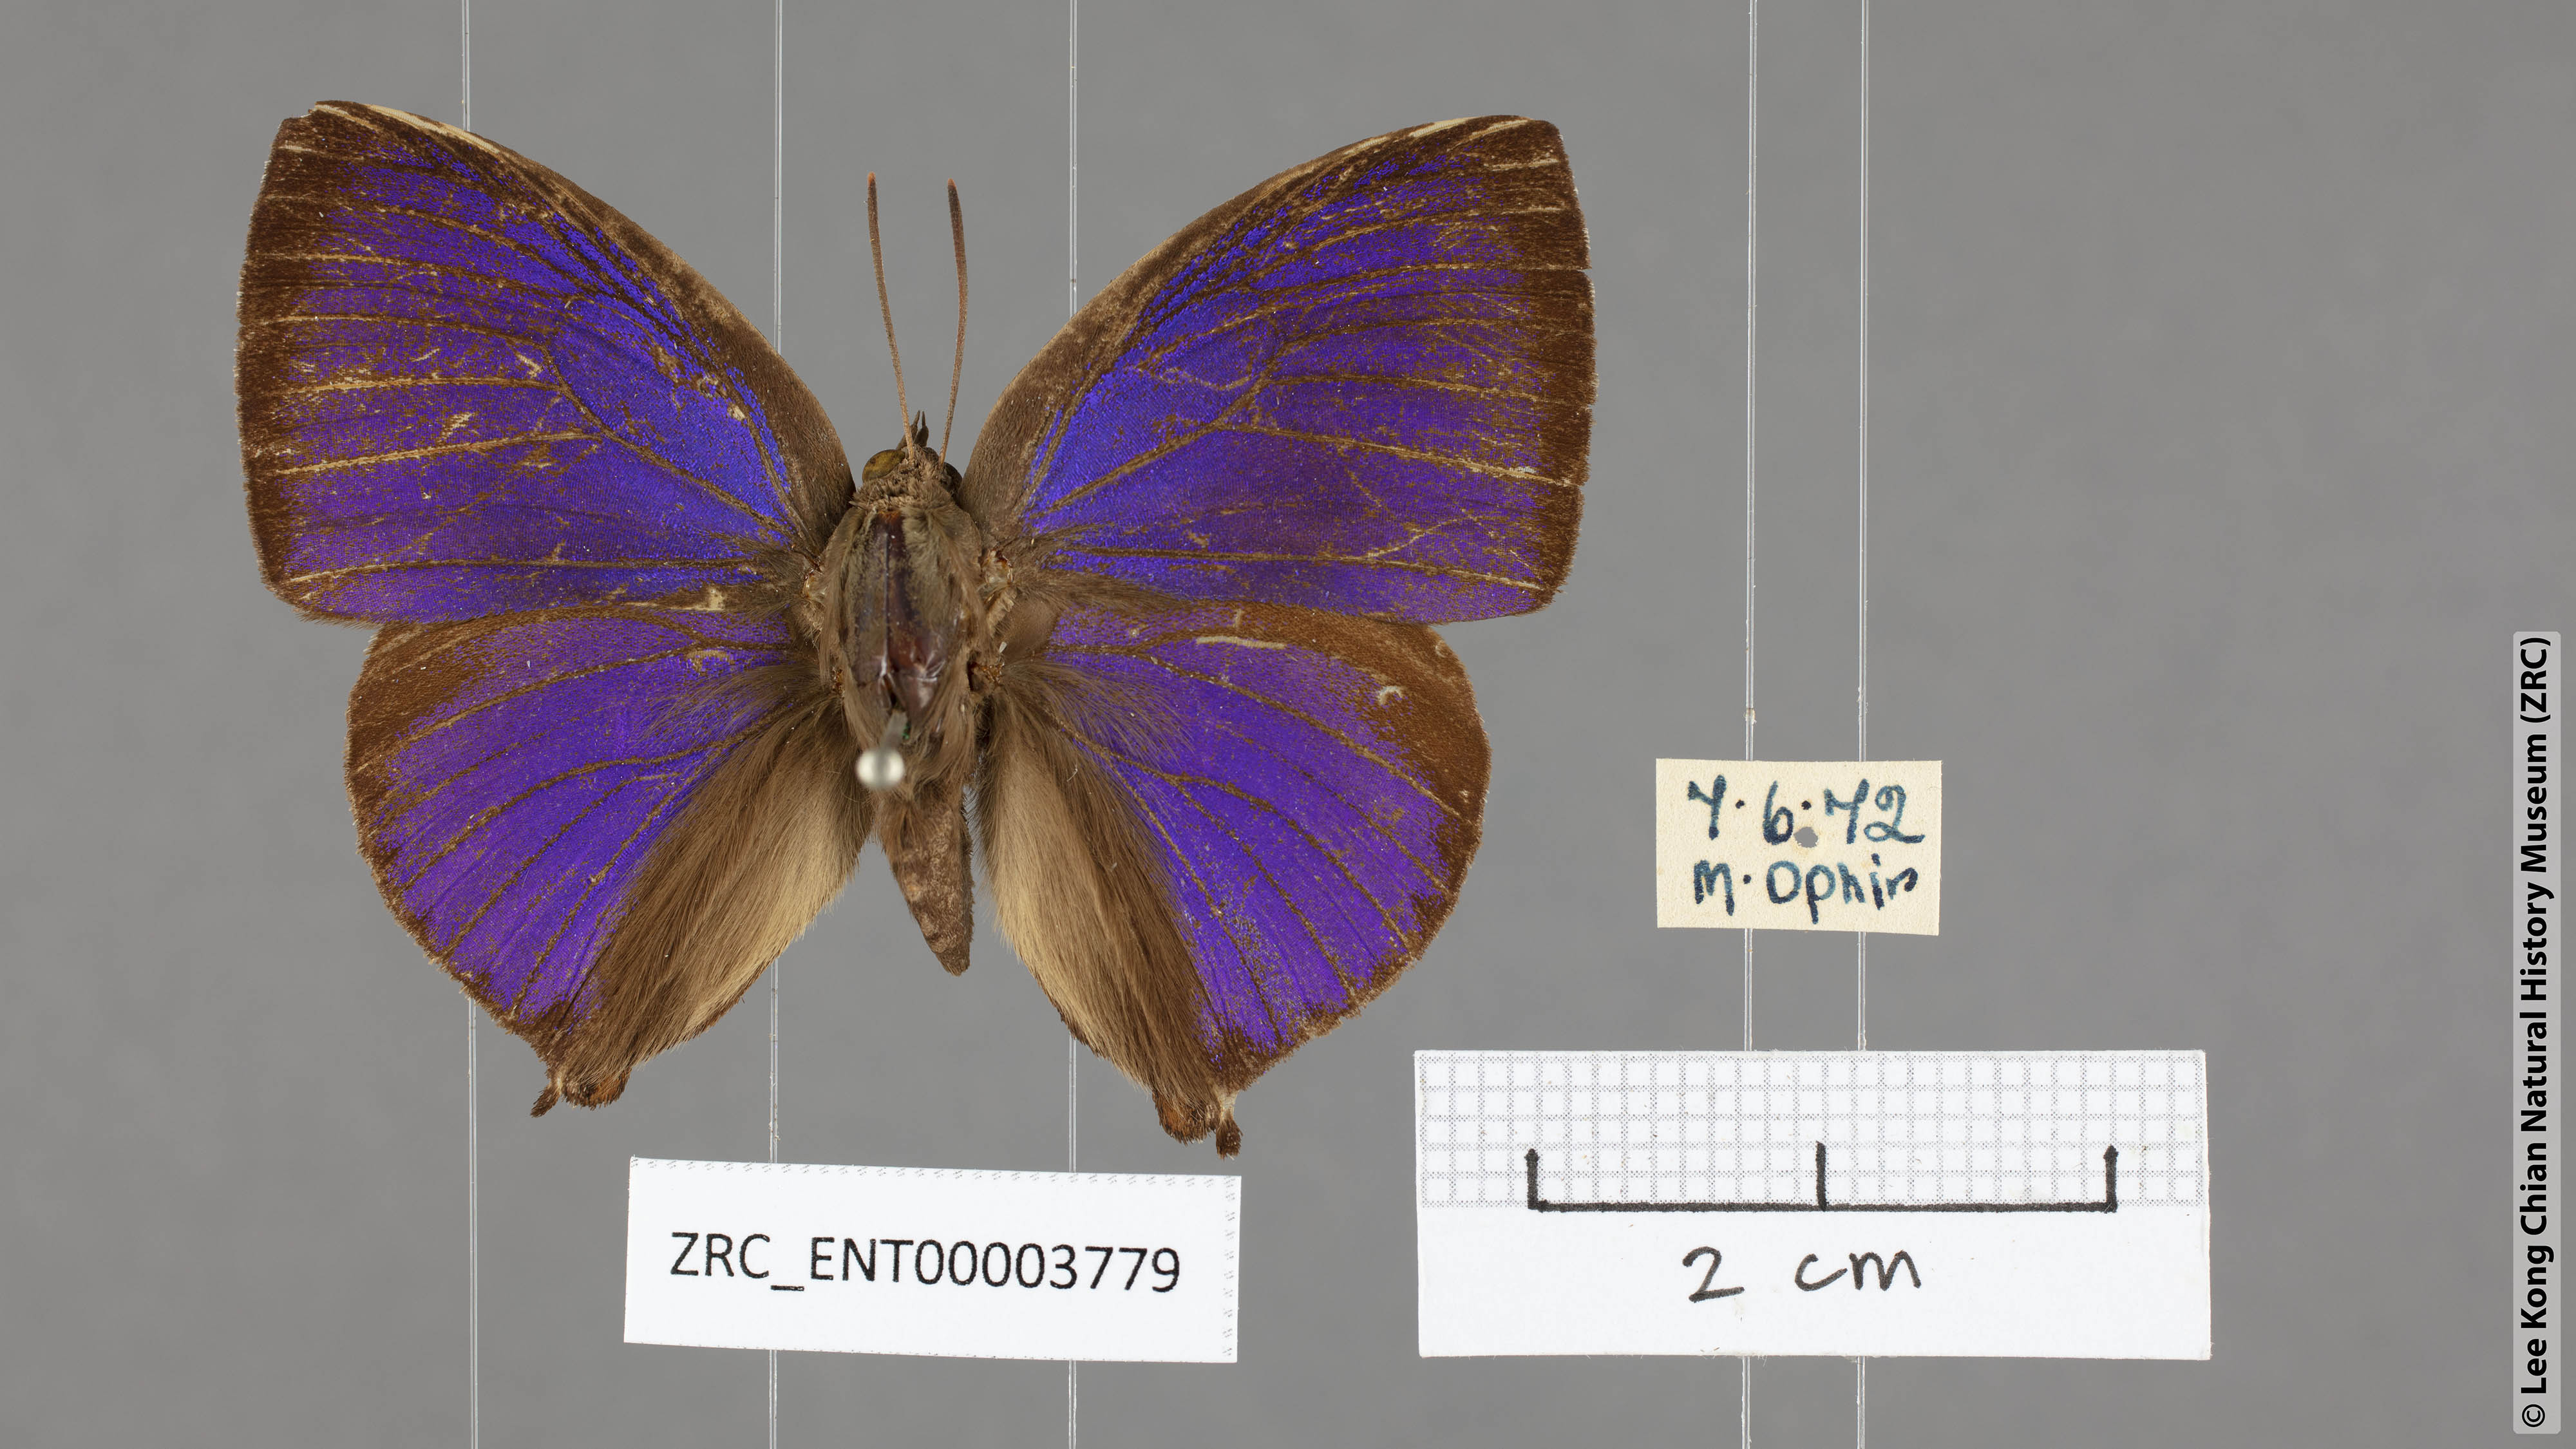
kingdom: Animalia
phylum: Arthropoda
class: Insecta
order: Lepidoptera
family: Lycaenidae
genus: Amblypodia
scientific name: Amblypodia narada
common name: Blue leaf blue
